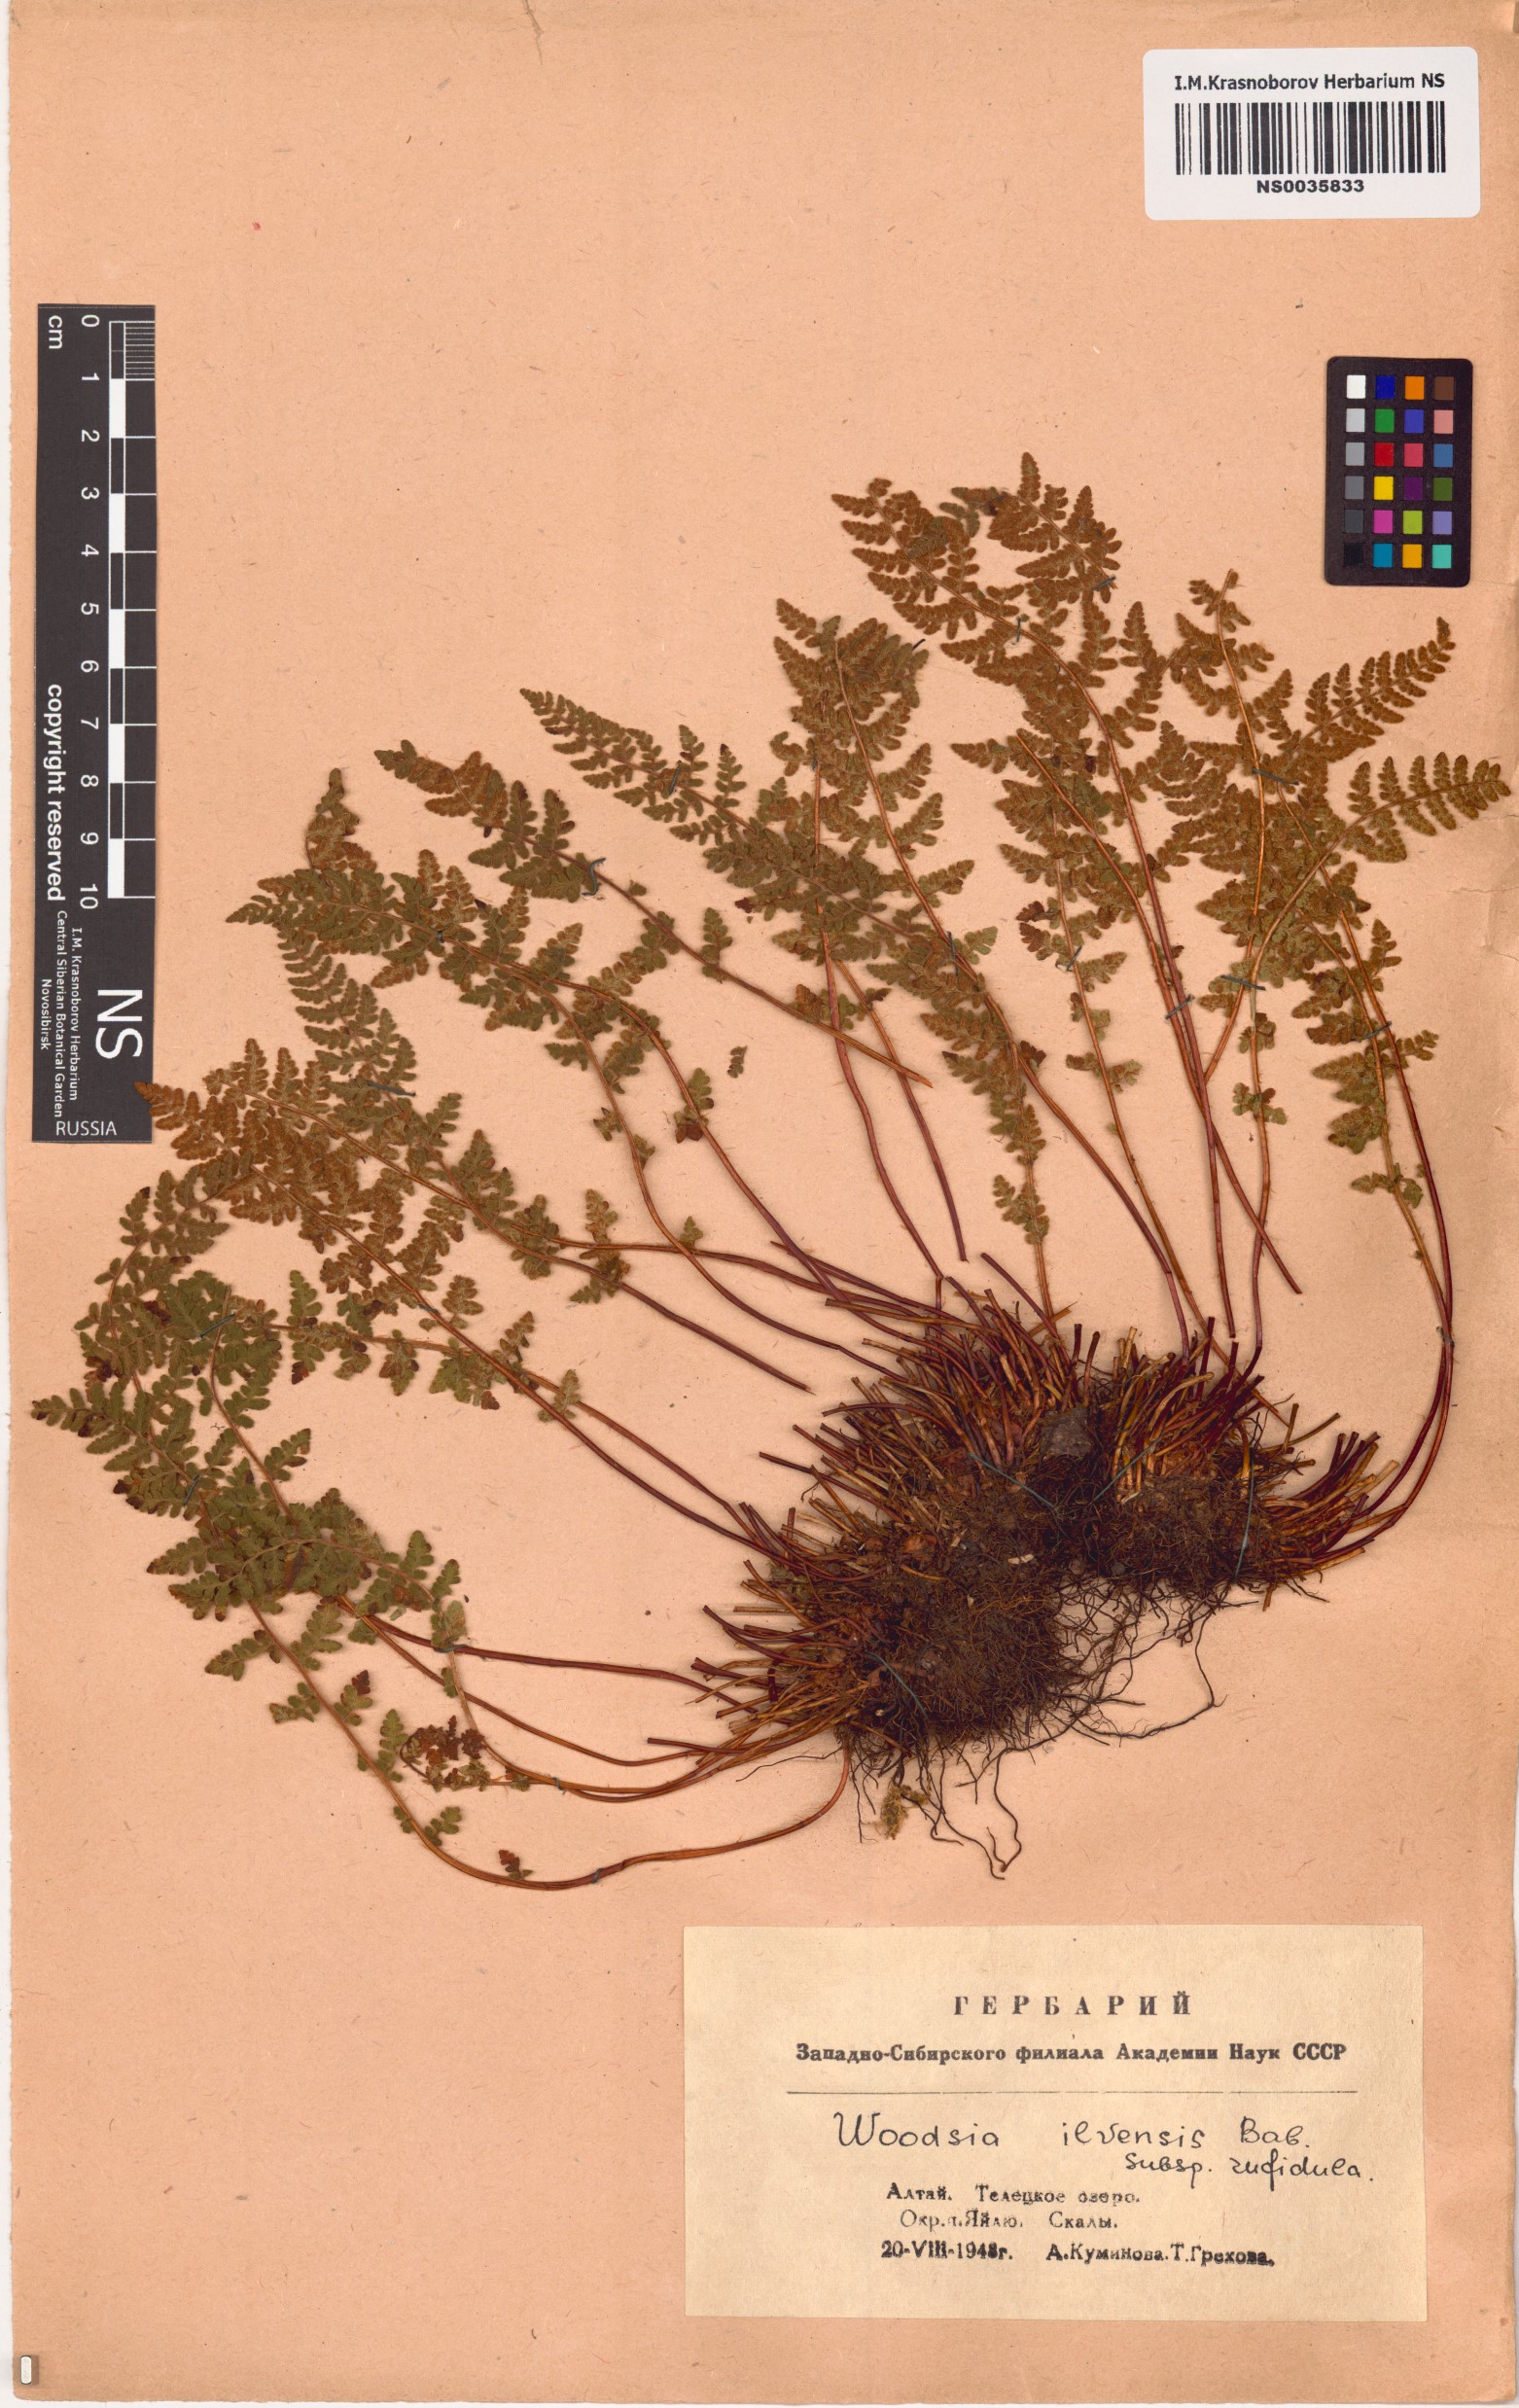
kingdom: Plantae
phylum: Tracheophyta
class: Polypodiopsida
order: Polypodiales
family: Woodsiaceae
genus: Woodsia
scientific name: Woodsia ilvensis
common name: Fragrant woodsia
